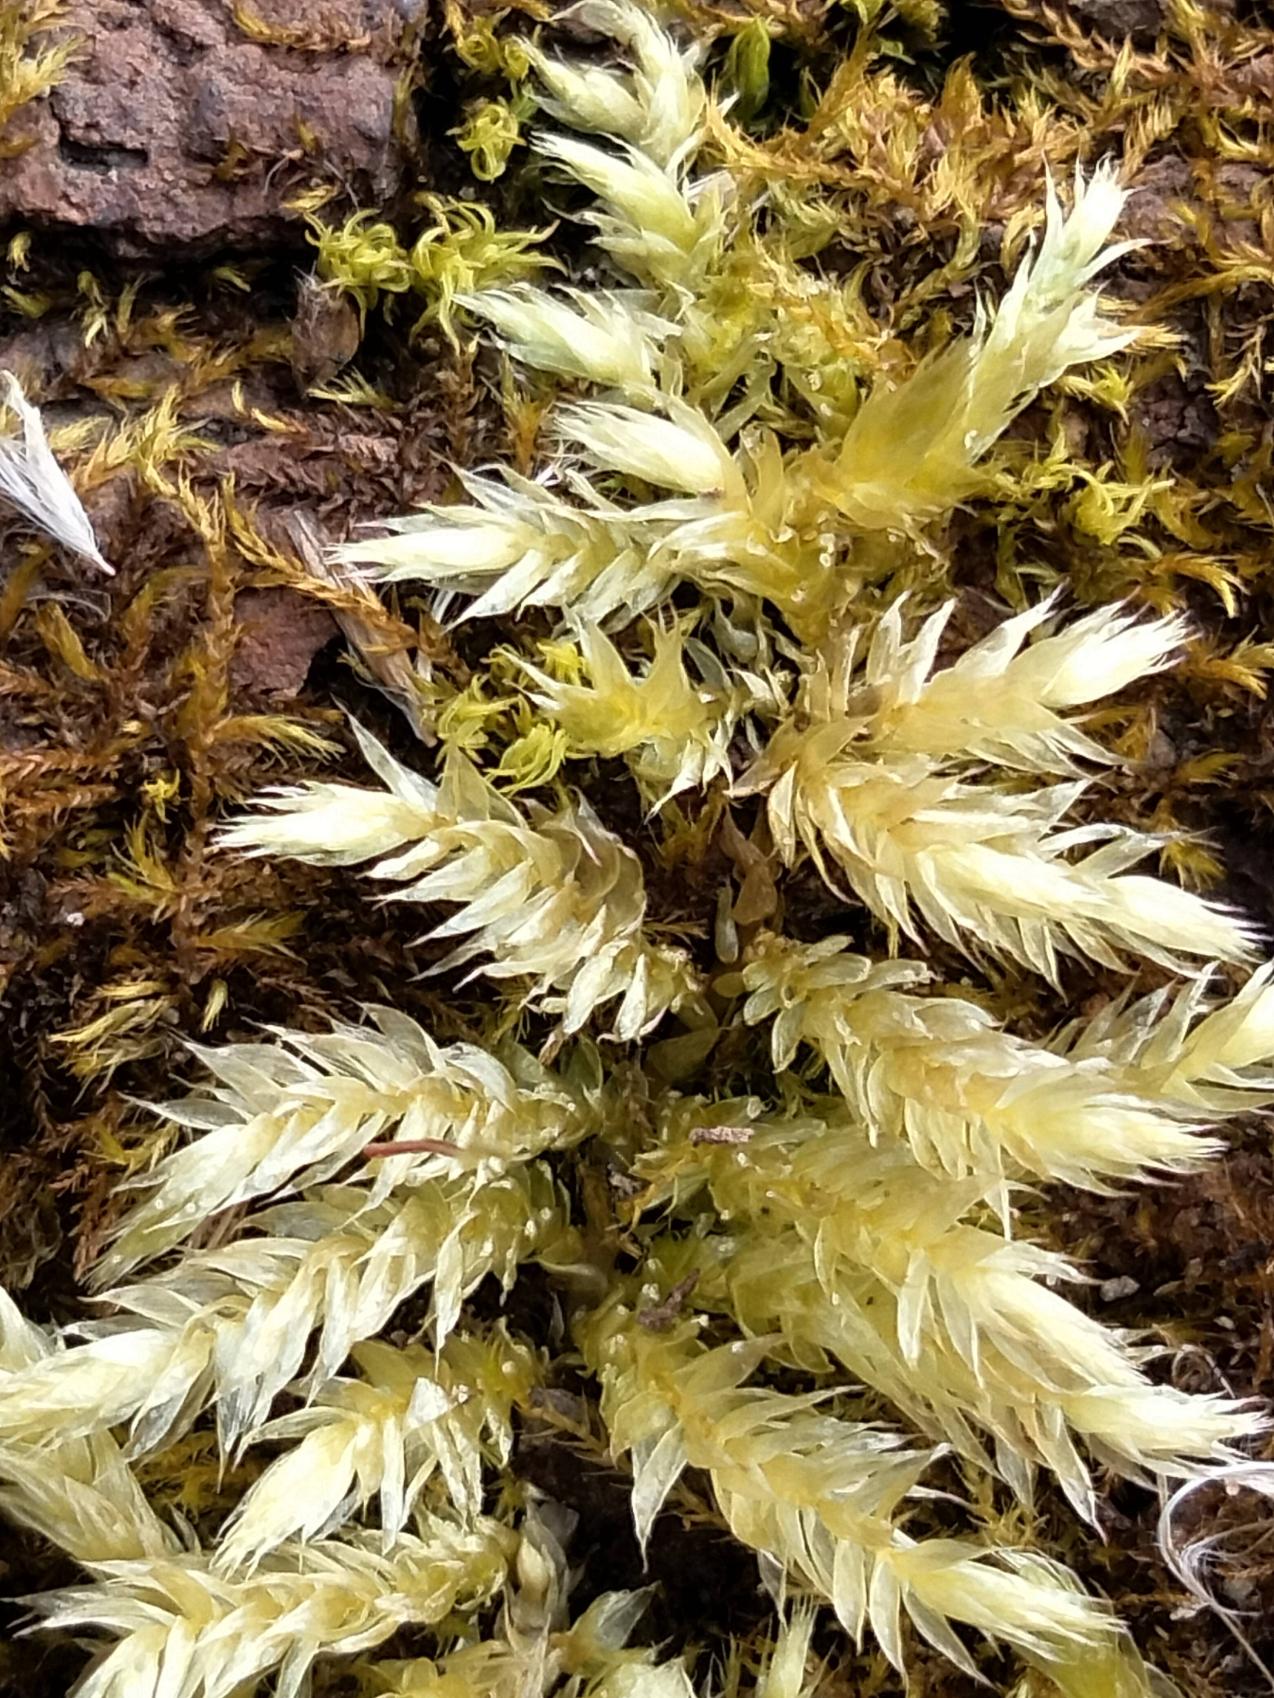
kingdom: Plantae
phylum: Bryophyta
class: Bryopsida
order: Hypnales
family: Brachytheciaceae
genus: Brachythecium
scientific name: Brachythecium rutabulum
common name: Almindelig kortkapsel
